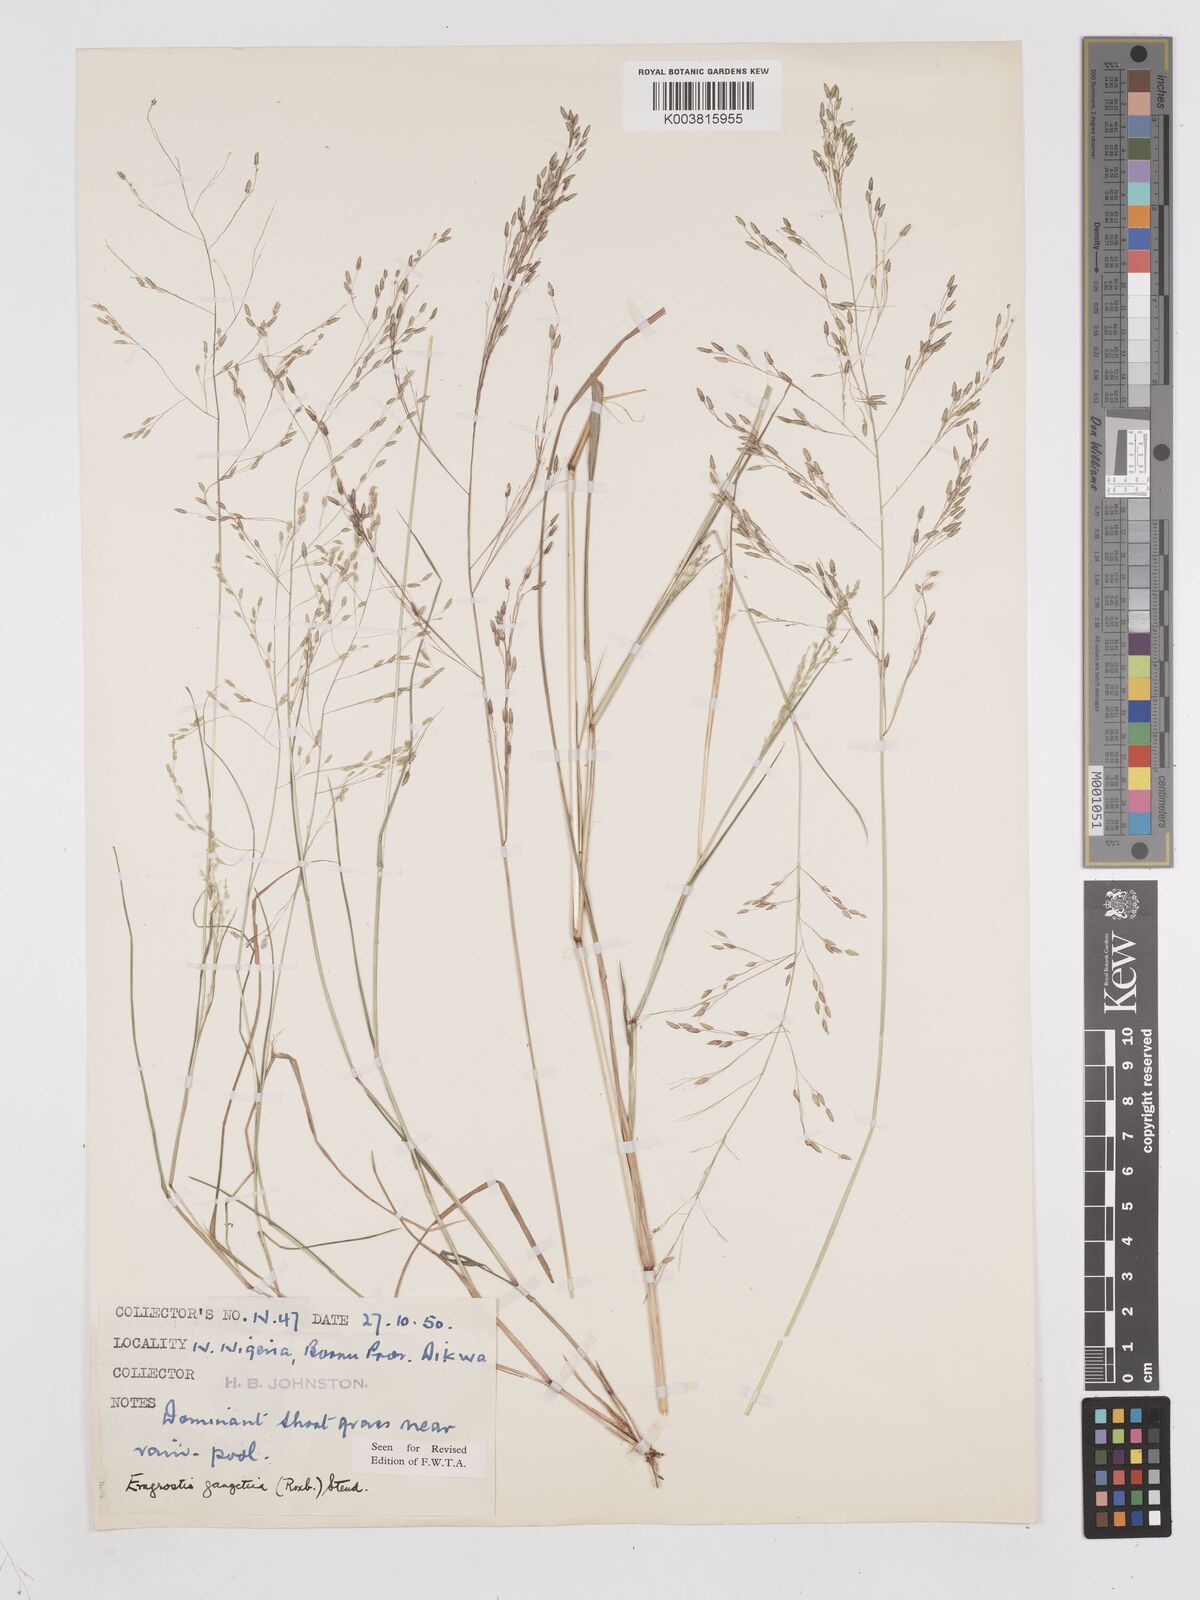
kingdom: Plantae
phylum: Tracheophyta
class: Liliopsida
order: Poales
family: Poaceae
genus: Eragrostis
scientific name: Eragrostis gangetica
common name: Slimflower lovegrass
